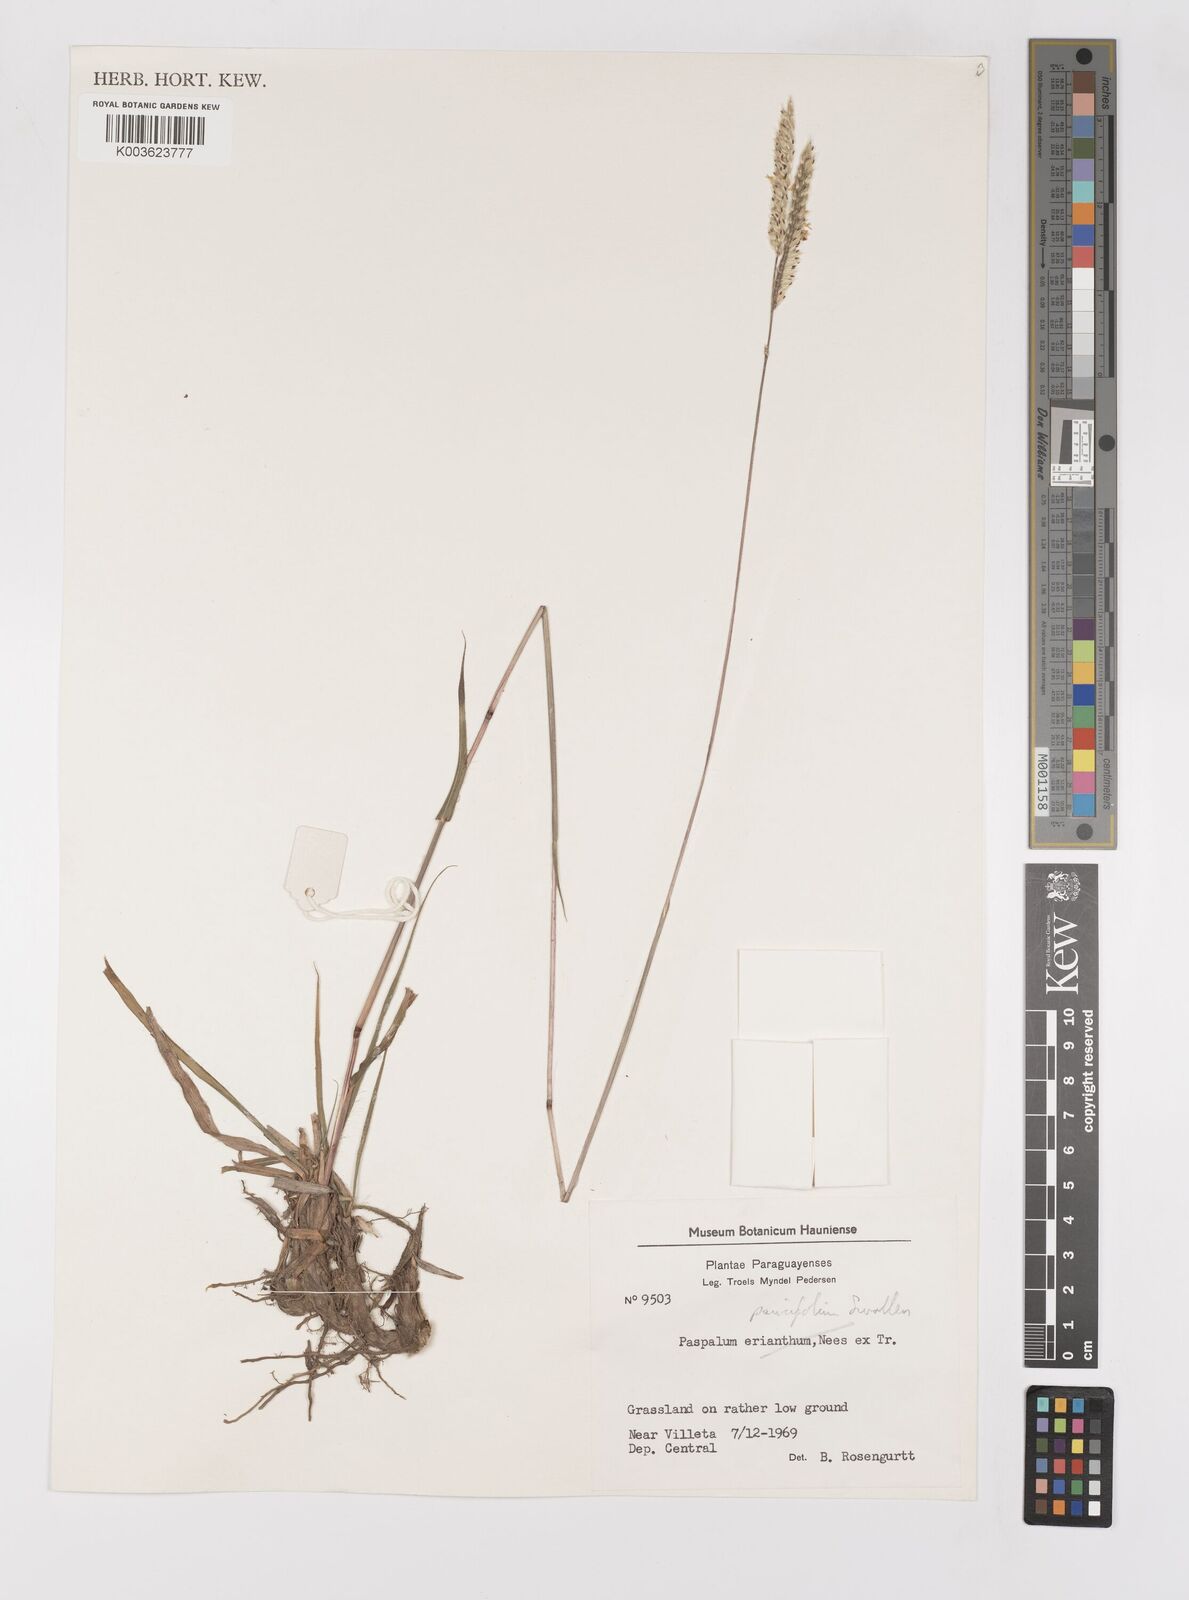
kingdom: Plantae
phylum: Tracheophyta
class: Liliopsida
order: Poales
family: Poaceae
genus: Paspalum
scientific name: Paspalum paucifolium
